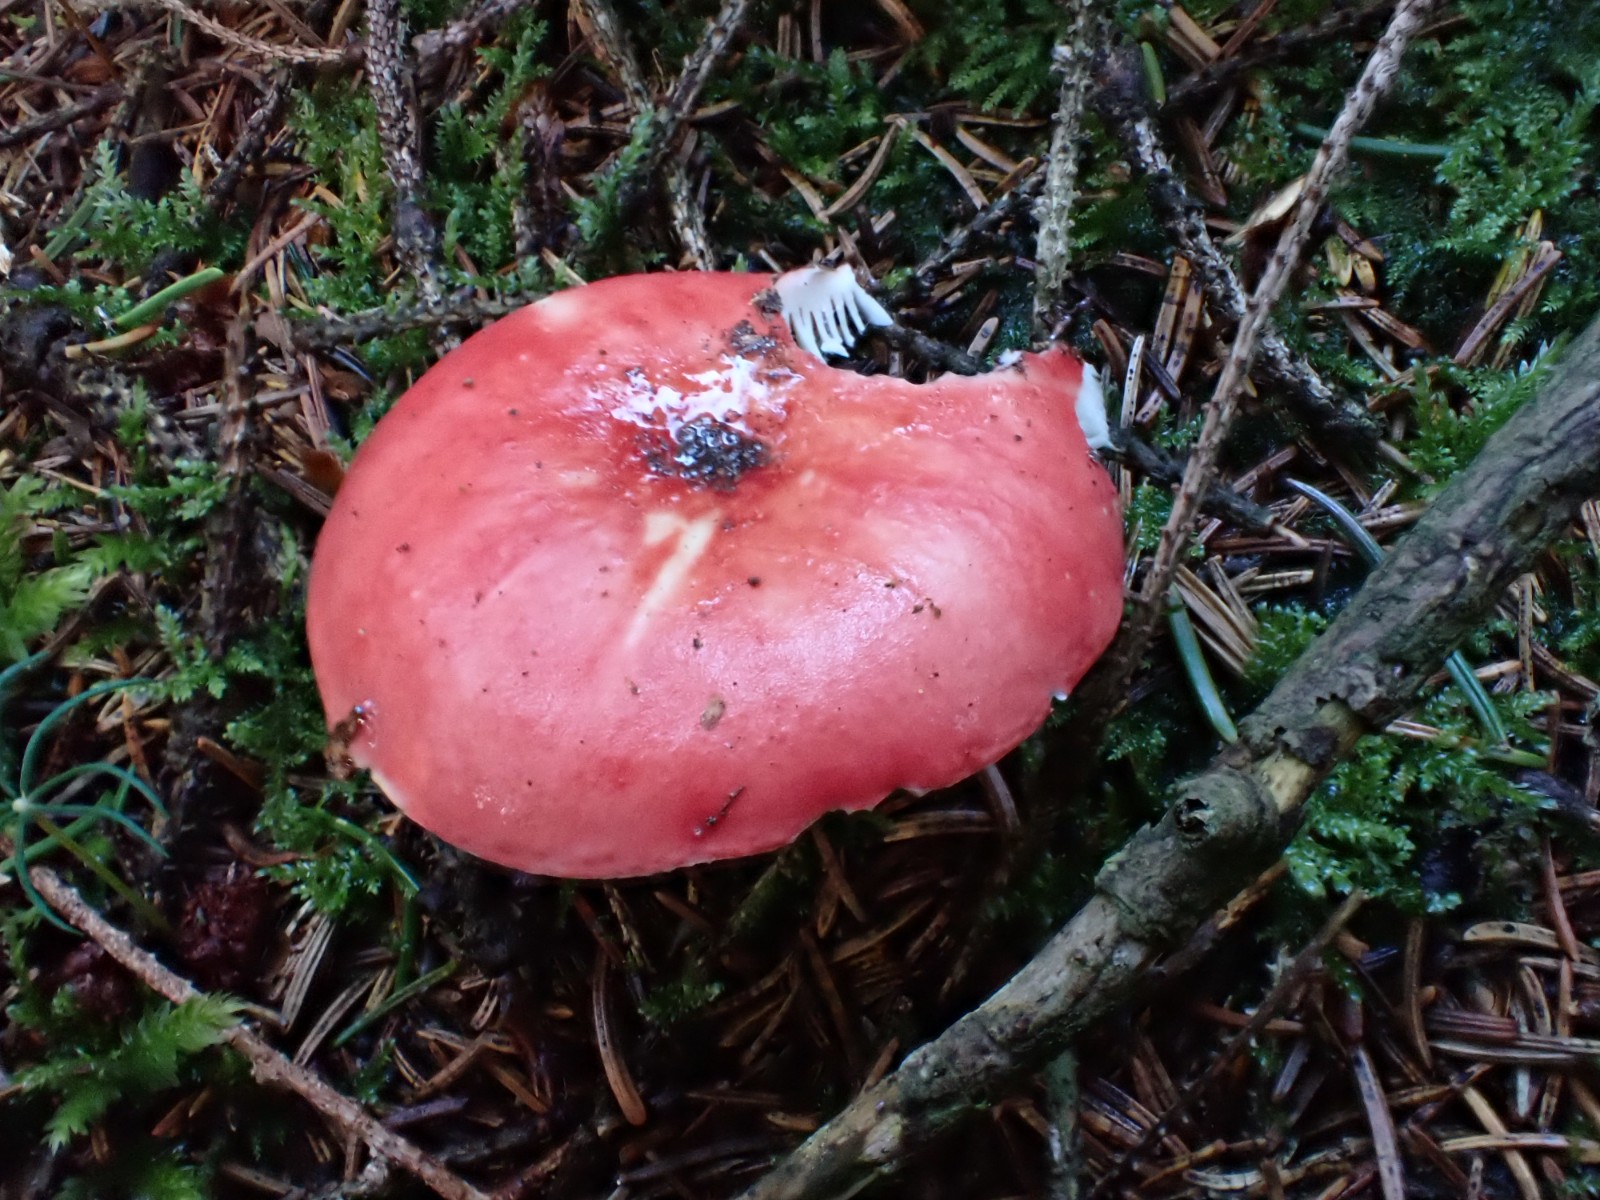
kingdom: Fungi
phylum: Basidiomycota
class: Agaricomycetes
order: Russulales
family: Russulaceae
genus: Russula
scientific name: Russula emetica
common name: stor gift-skørhat
